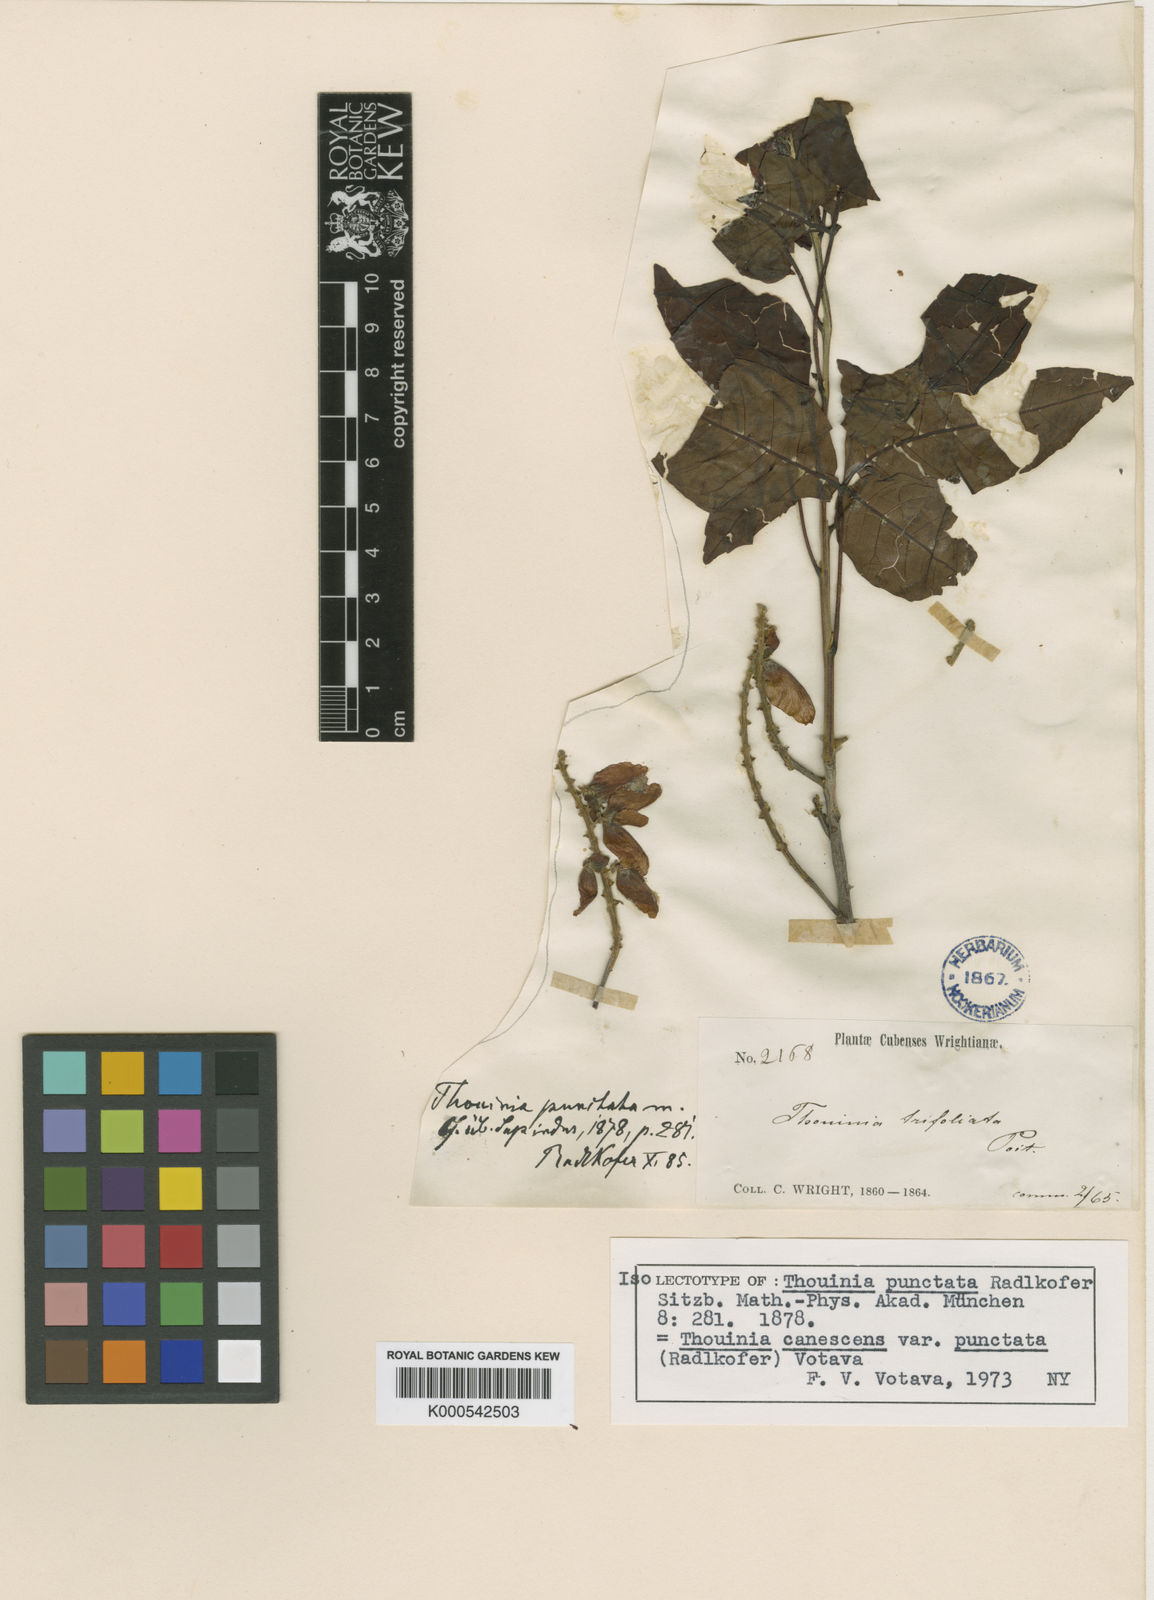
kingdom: Plantae
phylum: Tracheophyta
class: Magnoliopsida
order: Sapindales
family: Sapindaceae
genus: Thouinia
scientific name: Thouinia canescens
